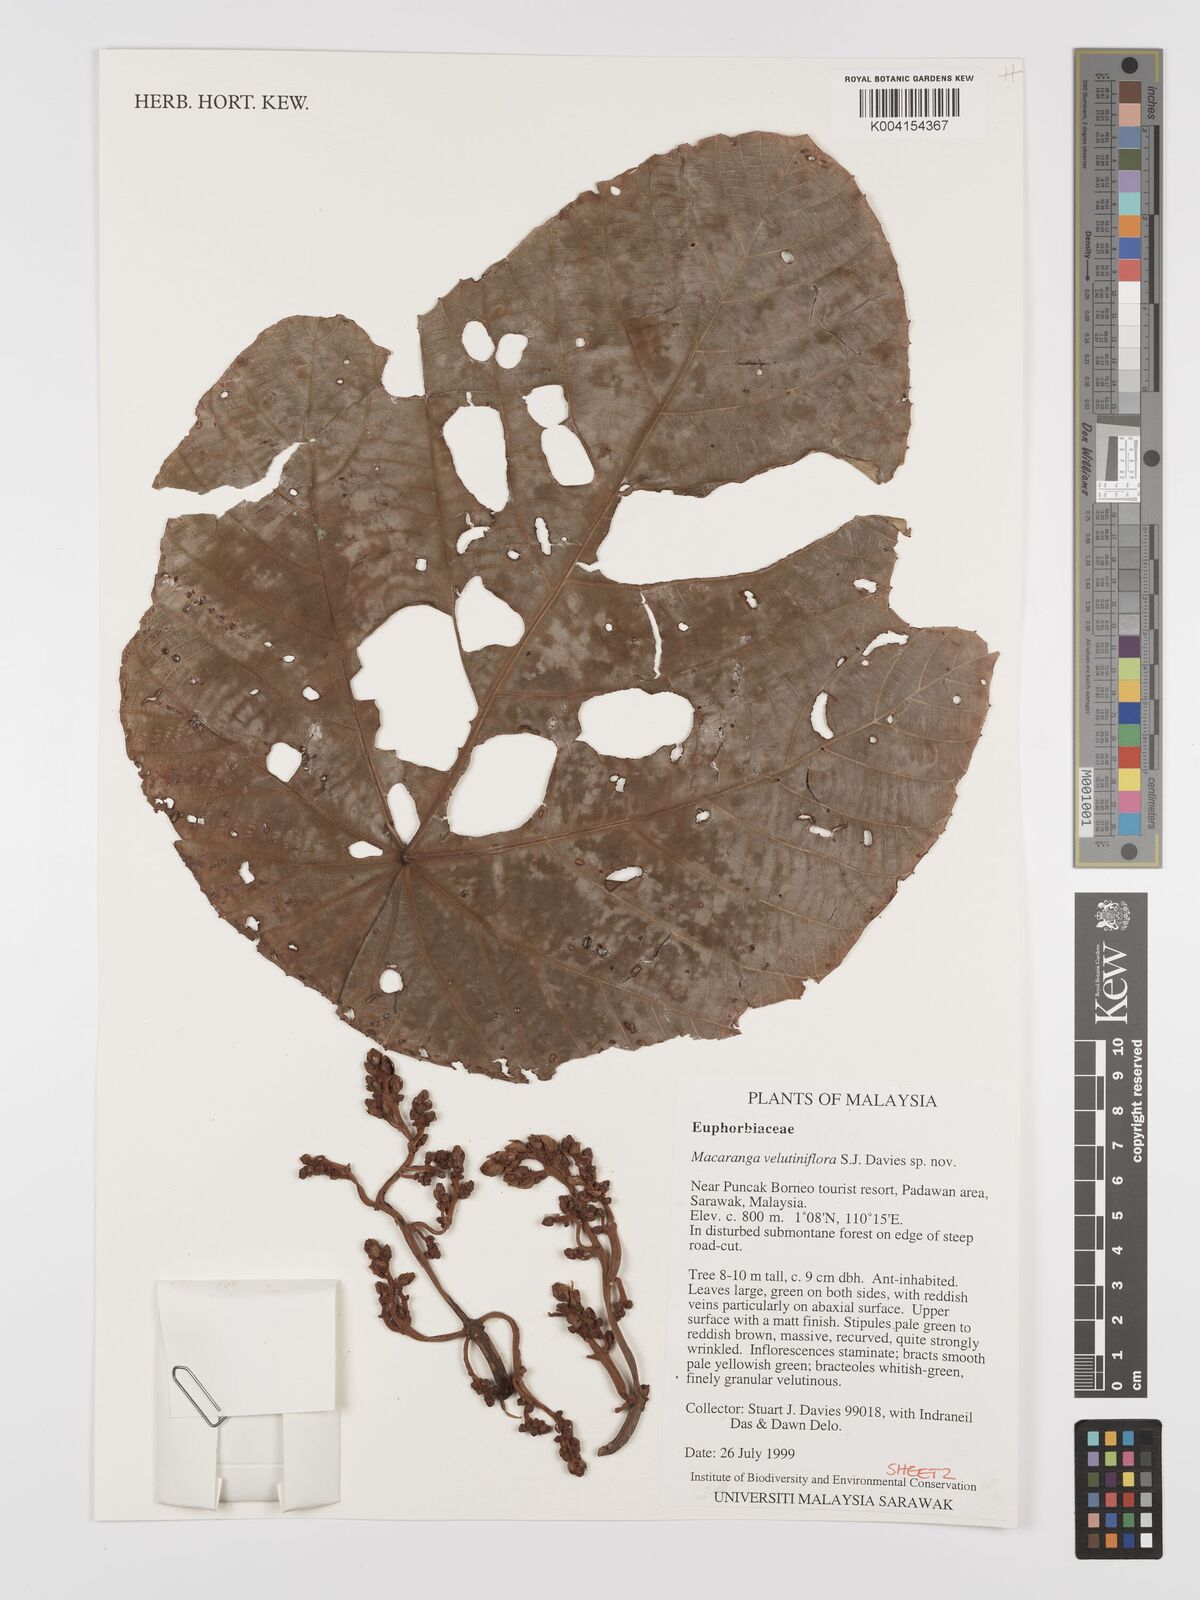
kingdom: Plantae
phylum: Tracheophyta
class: Magnoliopsida
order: Malpighiales
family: Euphorbiaceae
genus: Macaranga
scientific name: Macaranga velutiniflora
